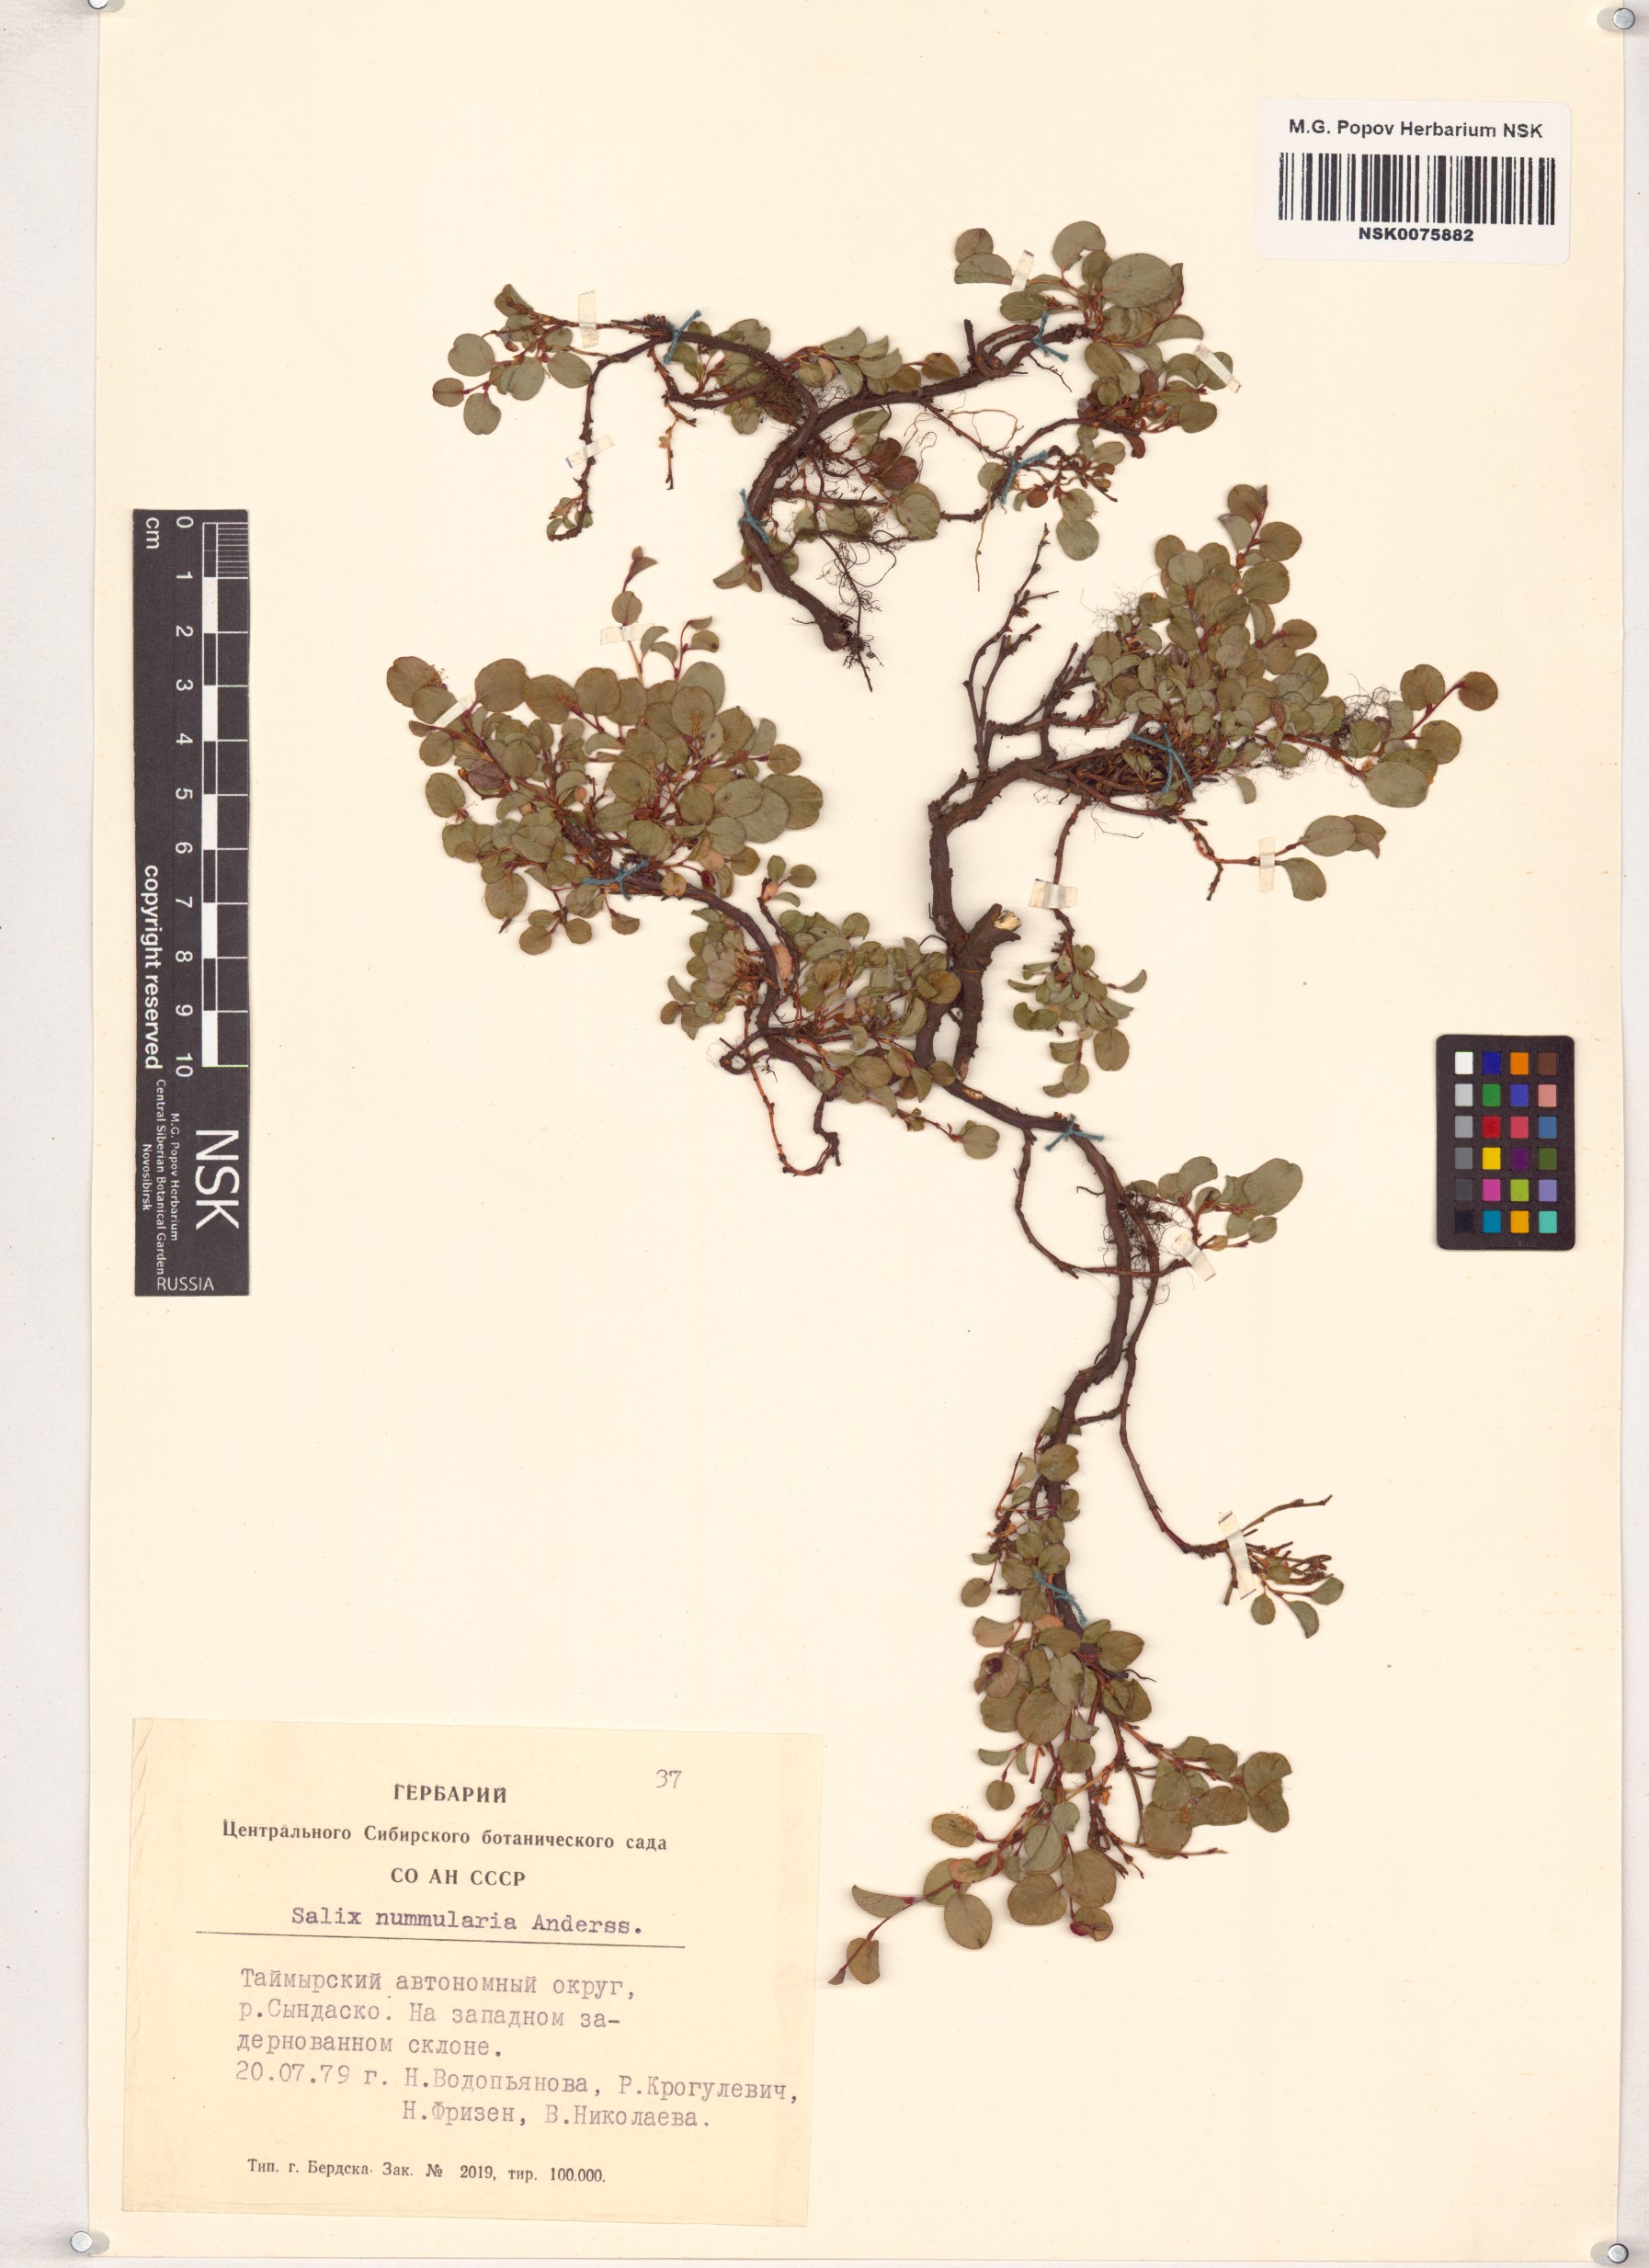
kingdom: Plantae
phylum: Tracheophyta
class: Magnoliopsida
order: Malpighiales
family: Salicaceae
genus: Salix
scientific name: Salix nummularia
